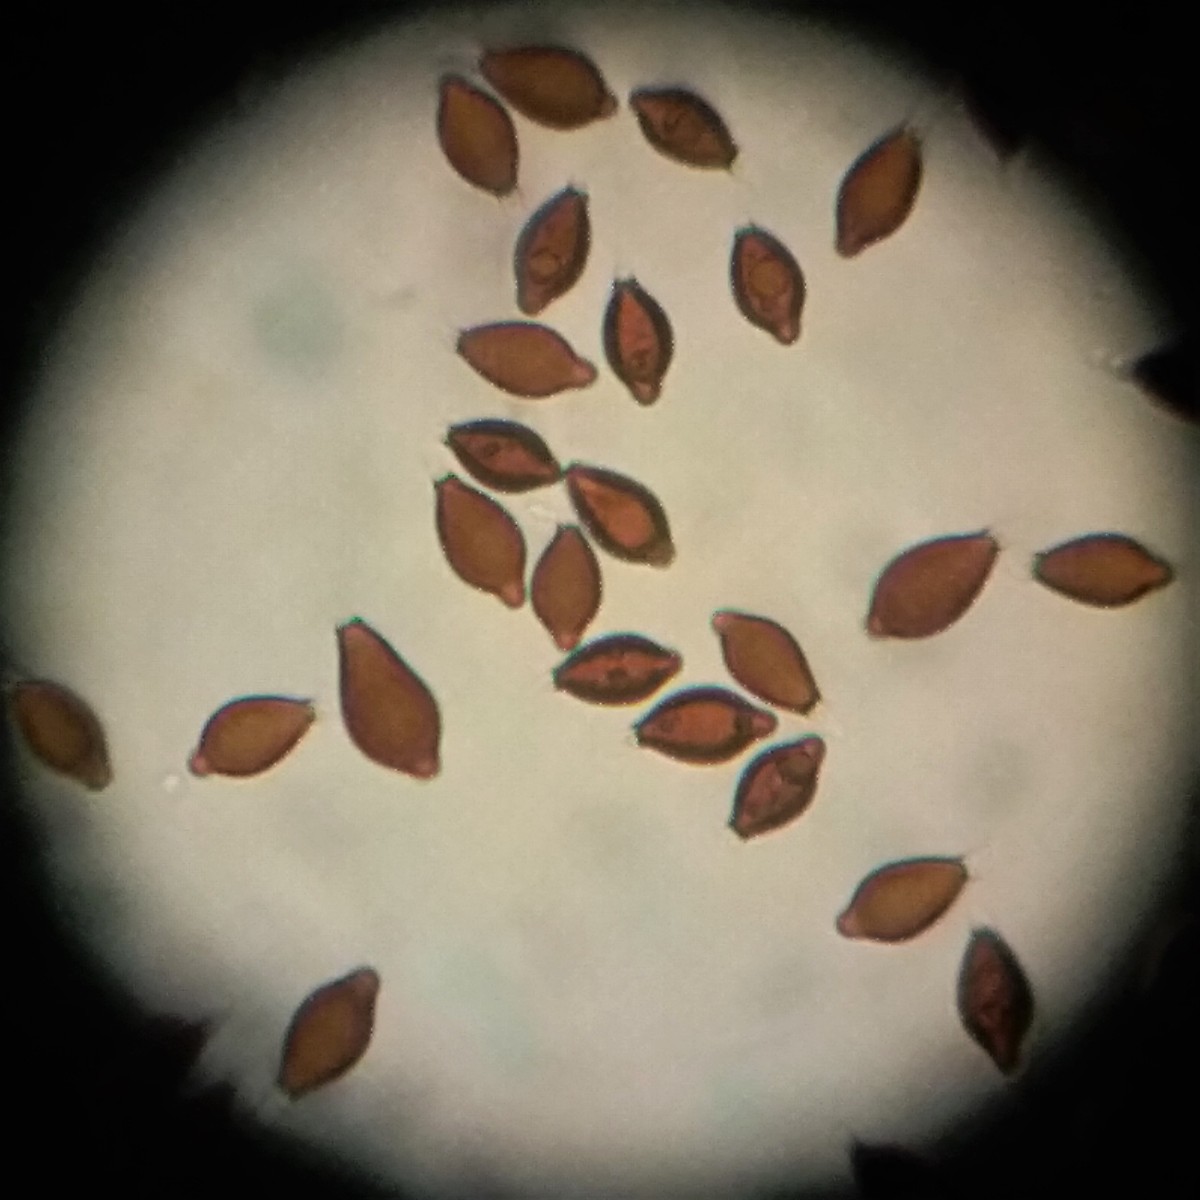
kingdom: Fungi
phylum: Basidiomycota
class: Agaricomycetes
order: Boletales
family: Paxillaceae
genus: Melanogaster
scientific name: Melanogaster ambiguus
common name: lille slimtrøffel
